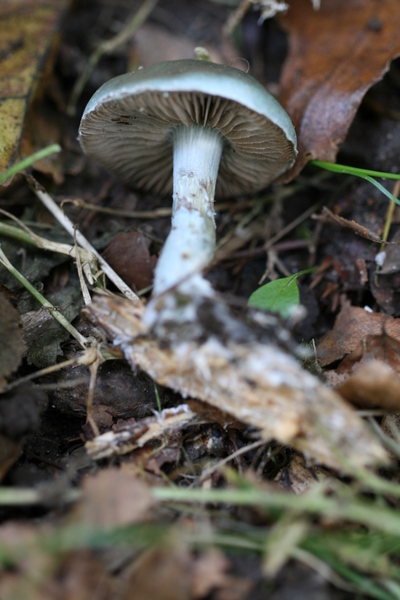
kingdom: Fungi
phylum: Basidiomycota
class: Agaricomycetes
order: Agaricales
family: Strophariaceae
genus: Stropharia
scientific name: Stropharia cyanea
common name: blågrøn bredblad
